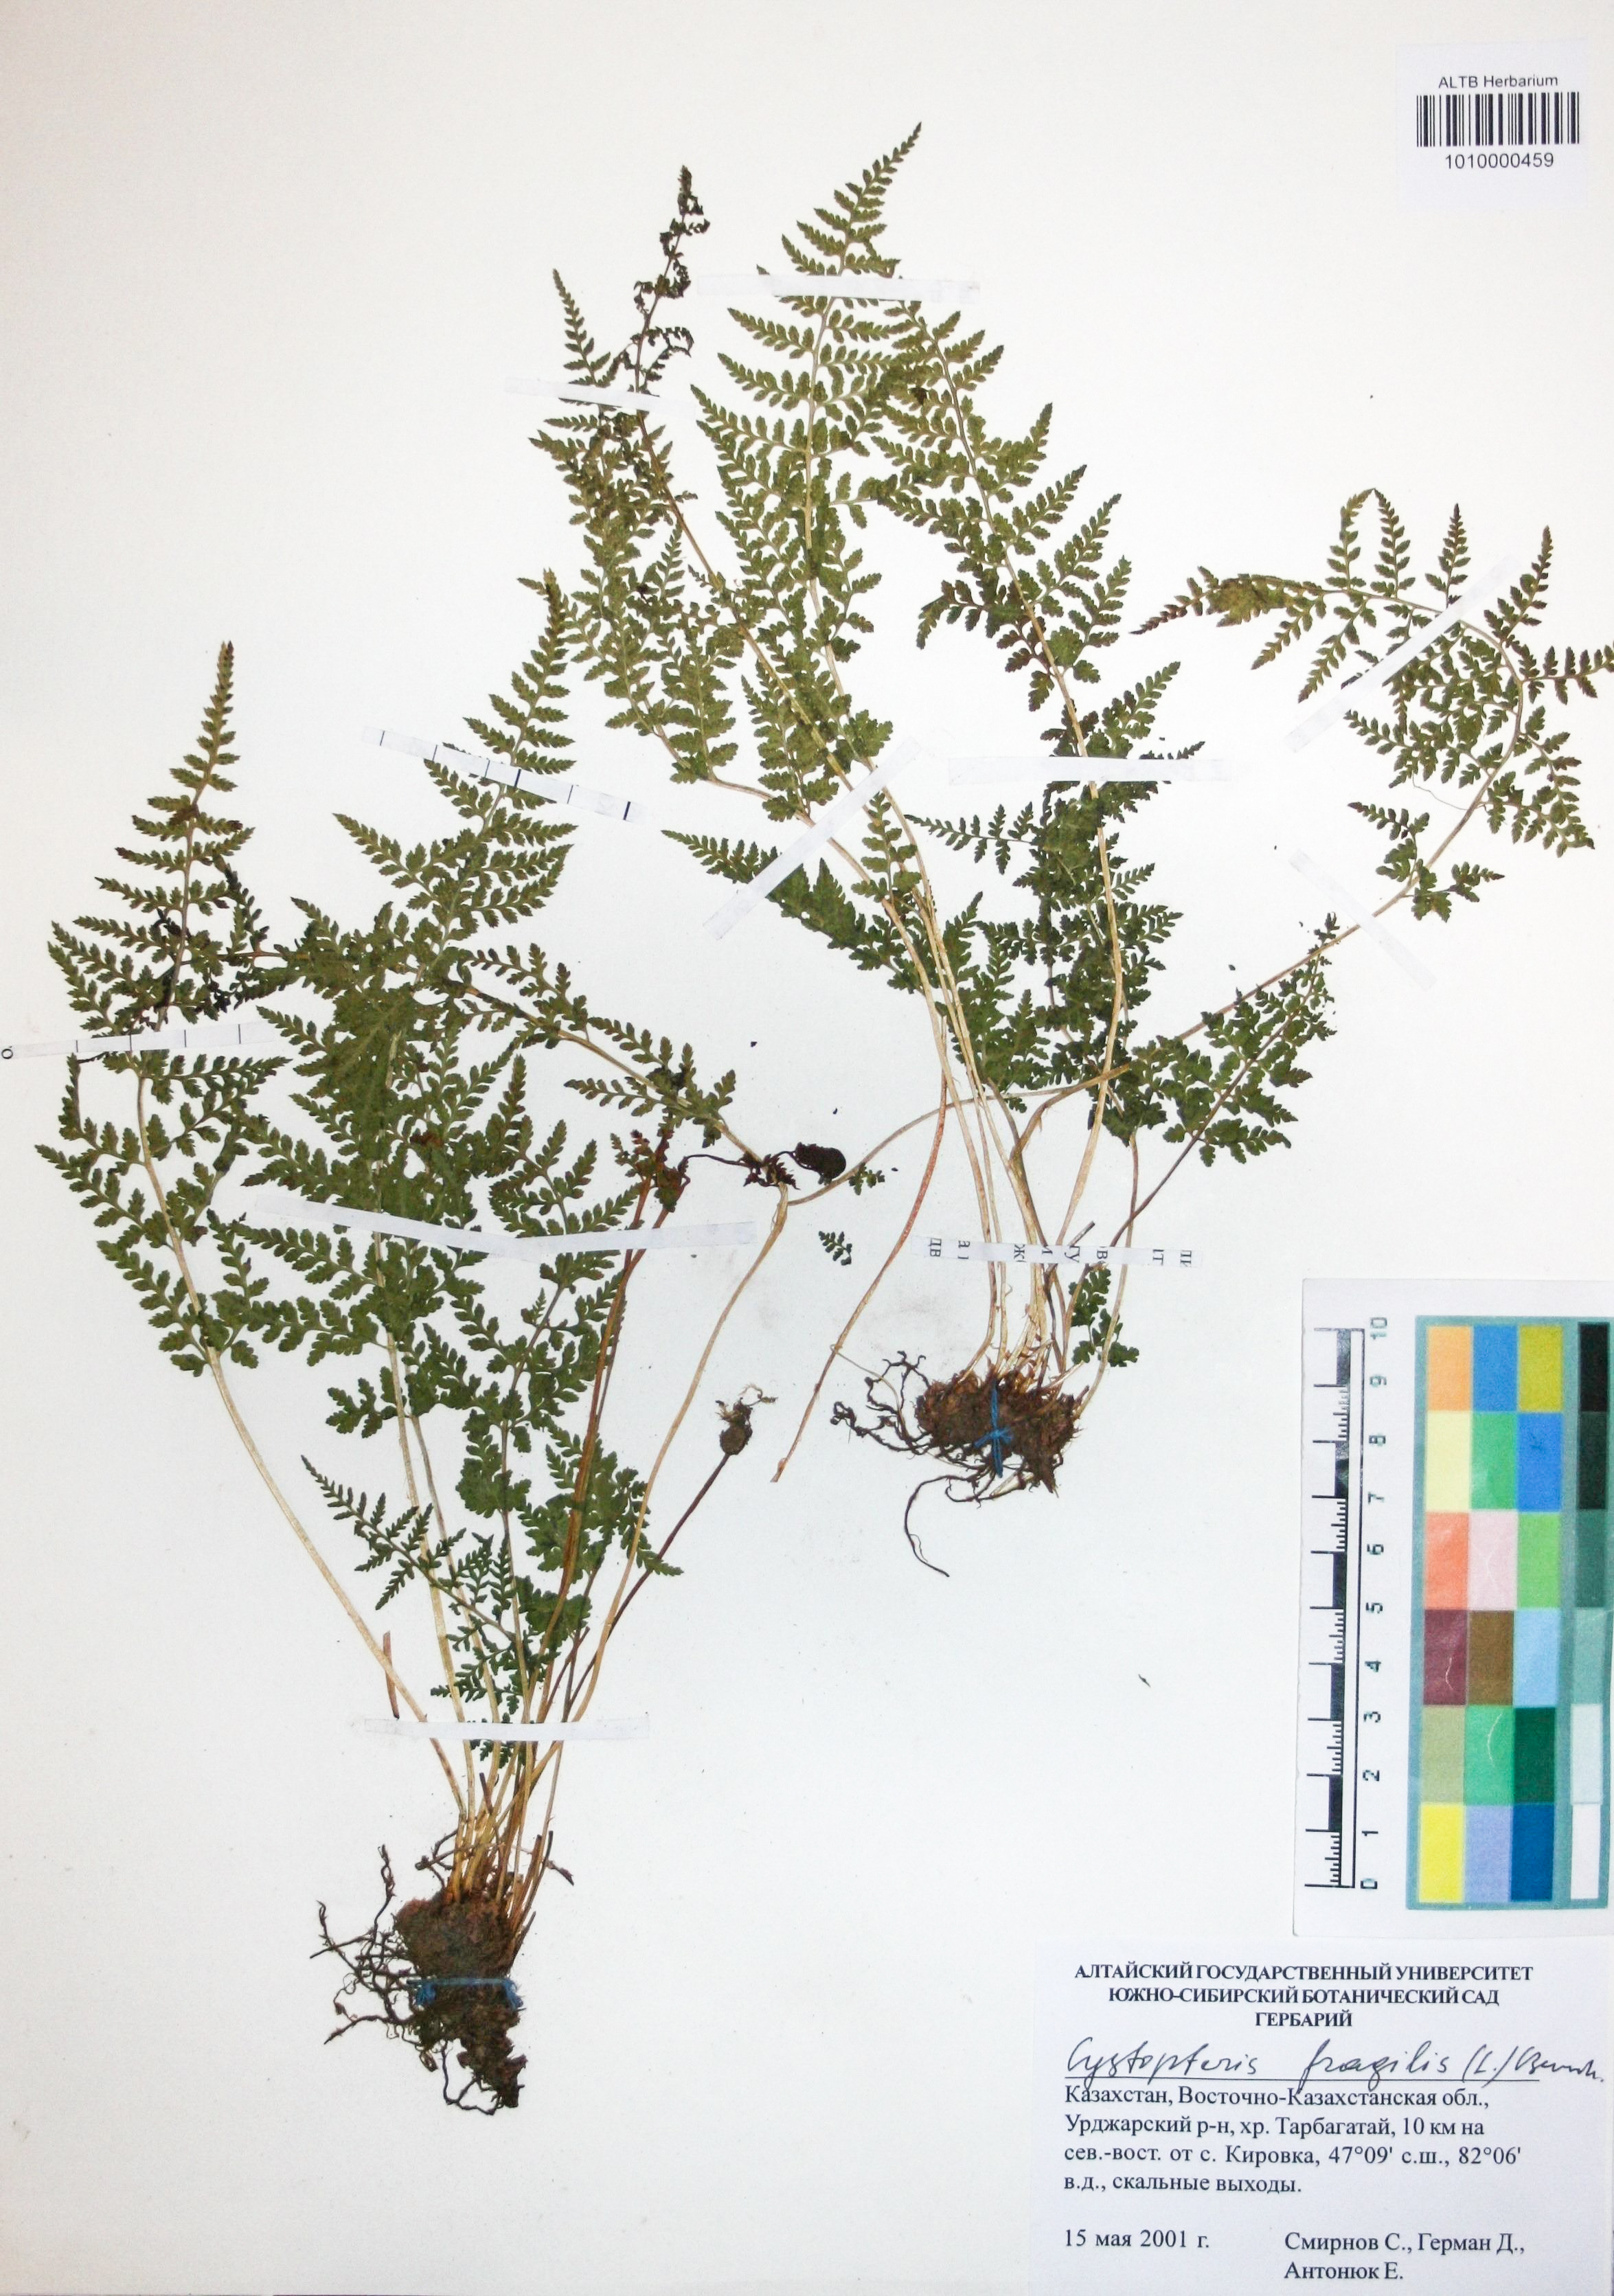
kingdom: Plantae
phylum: Tracheophyta
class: Polypodiopsida
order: Polypodiales
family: Cystopteridaceae
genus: Cystopteris
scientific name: Cystopteris fragilis
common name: Brittle bladder fern
